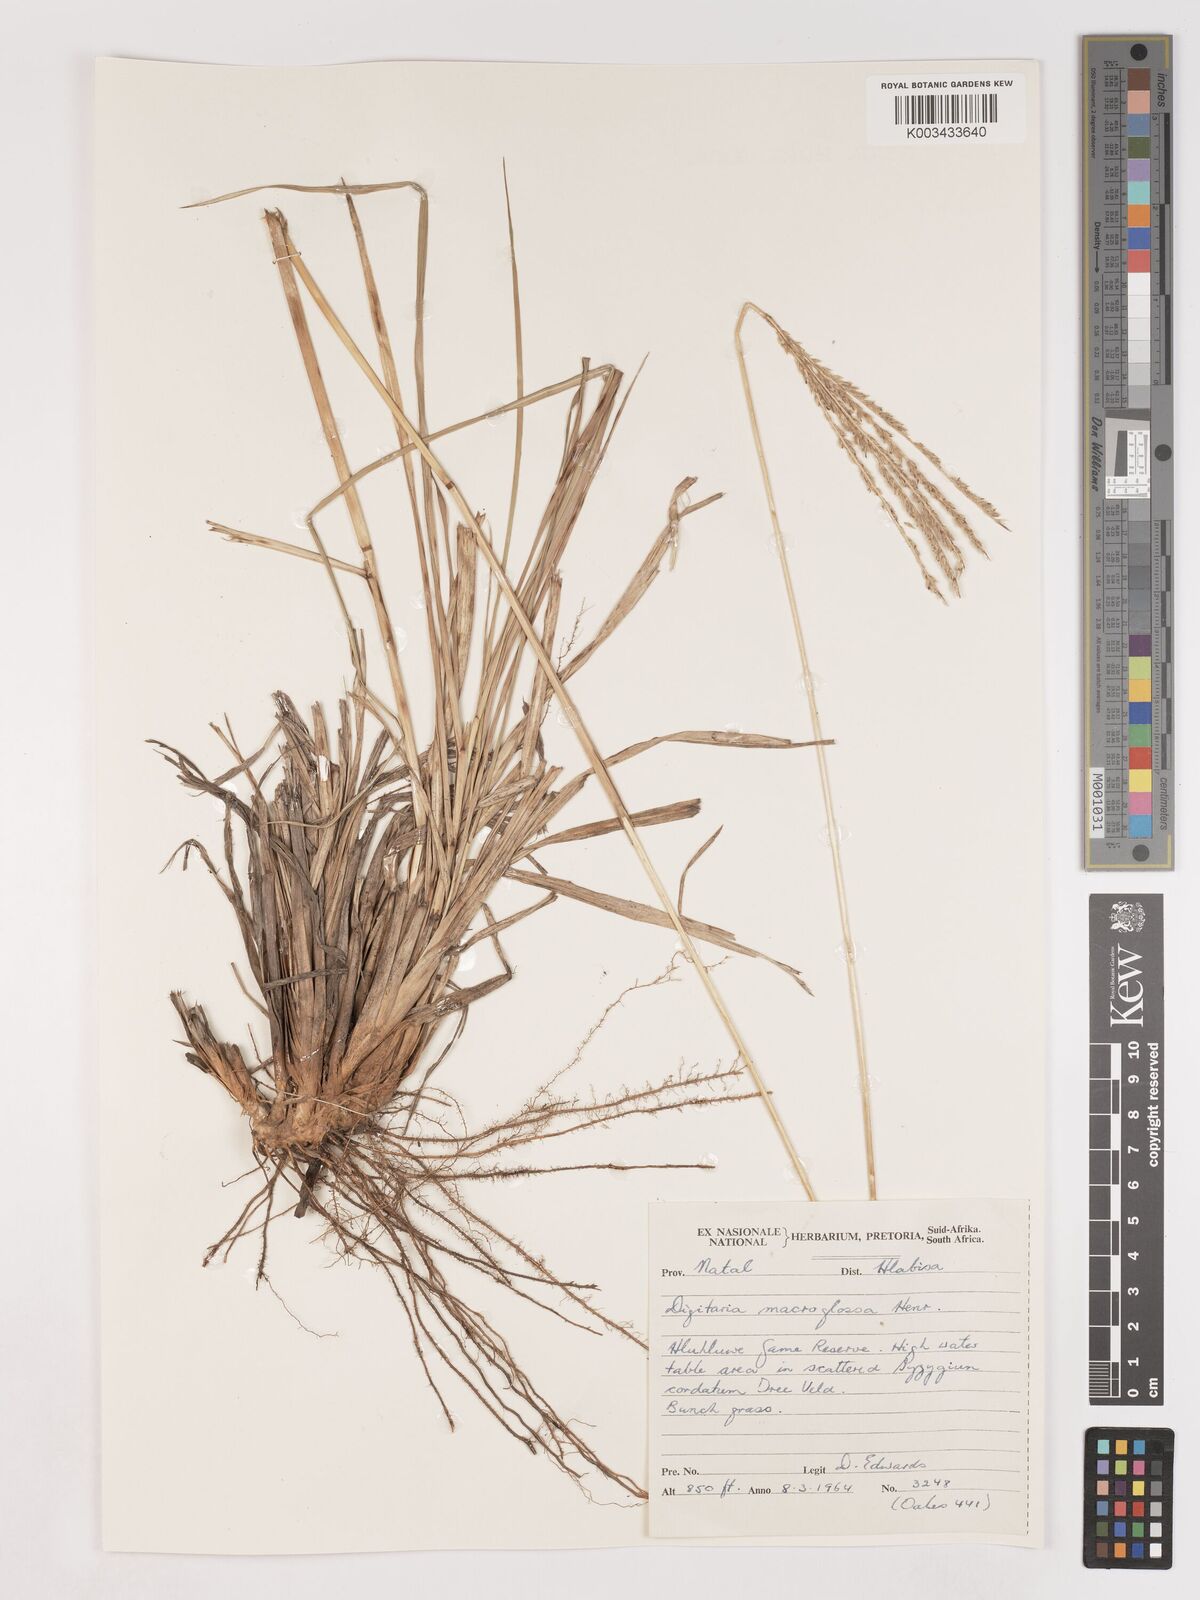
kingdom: Plantae
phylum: Tracheophyta
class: Liliopsida
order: Poales
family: Poaceae
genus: Digitaria
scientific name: Digitaria natalensis
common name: Coast finger grass
